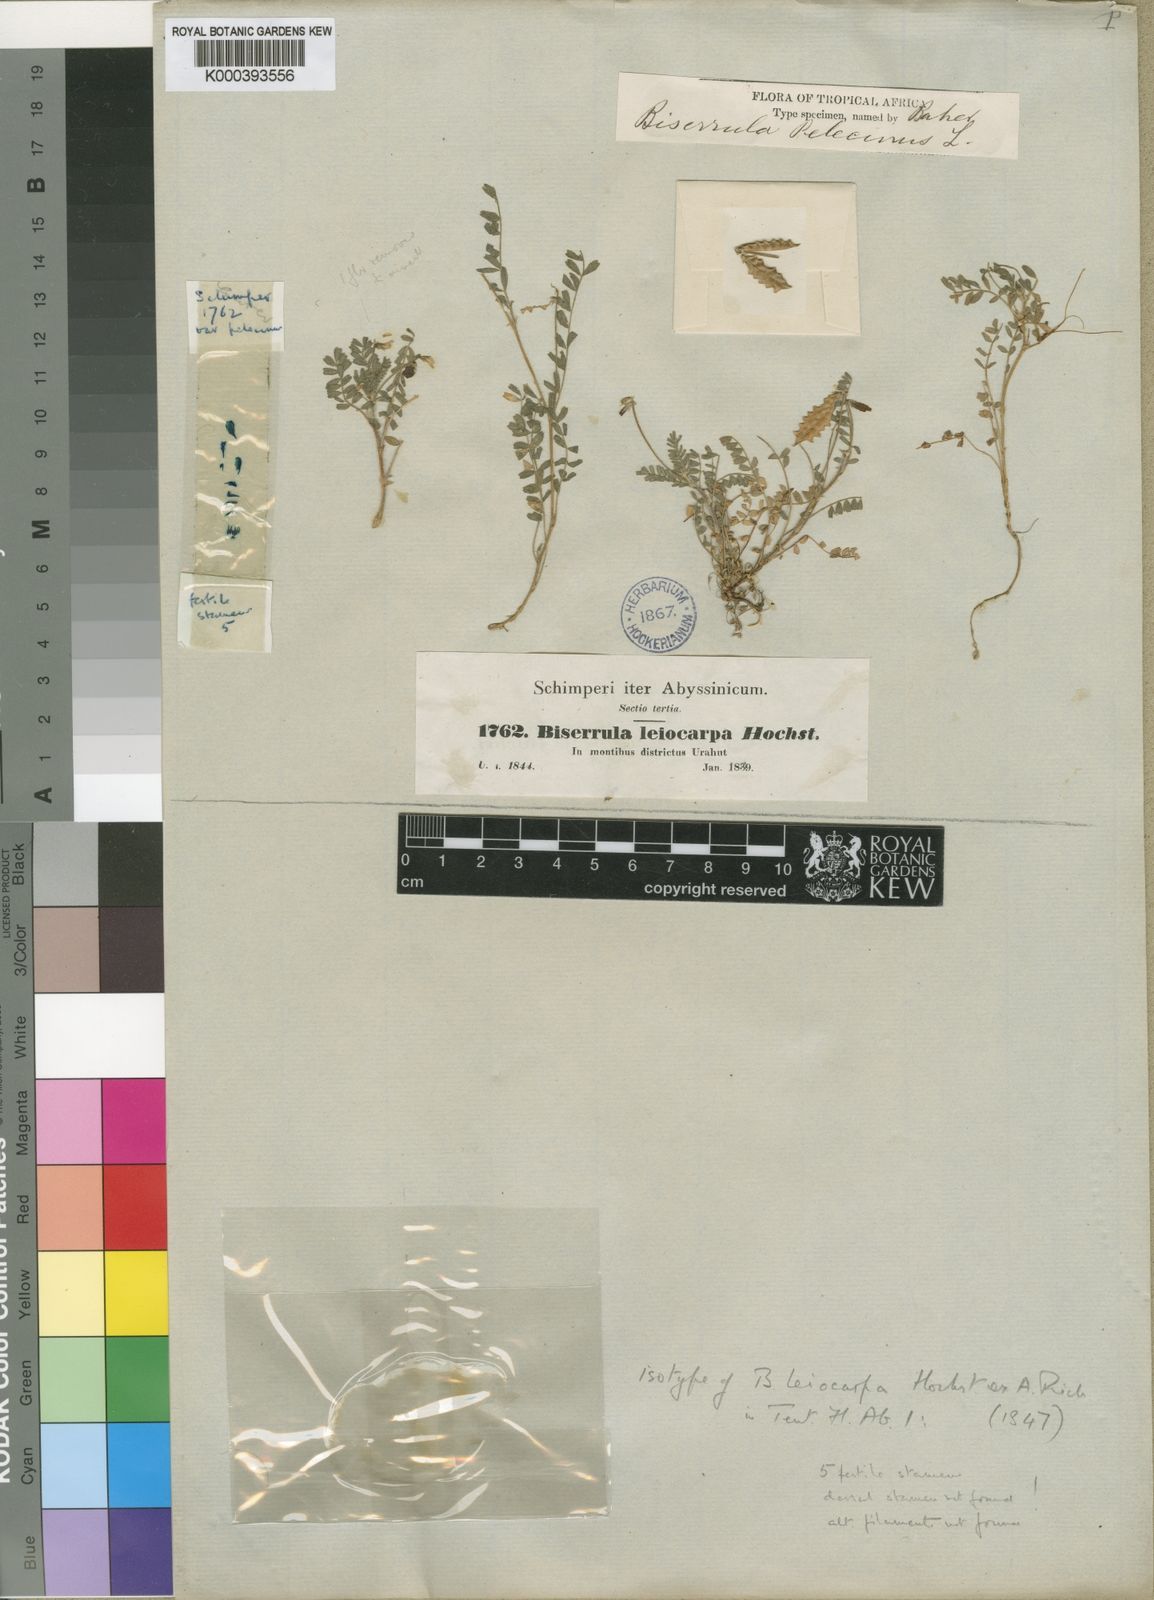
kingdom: Plantae
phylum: Tracheophyta
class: Magnoliopsida
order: Fabales
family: Fabaceae
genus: Biserrula
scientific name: Biserrula pelecinus
